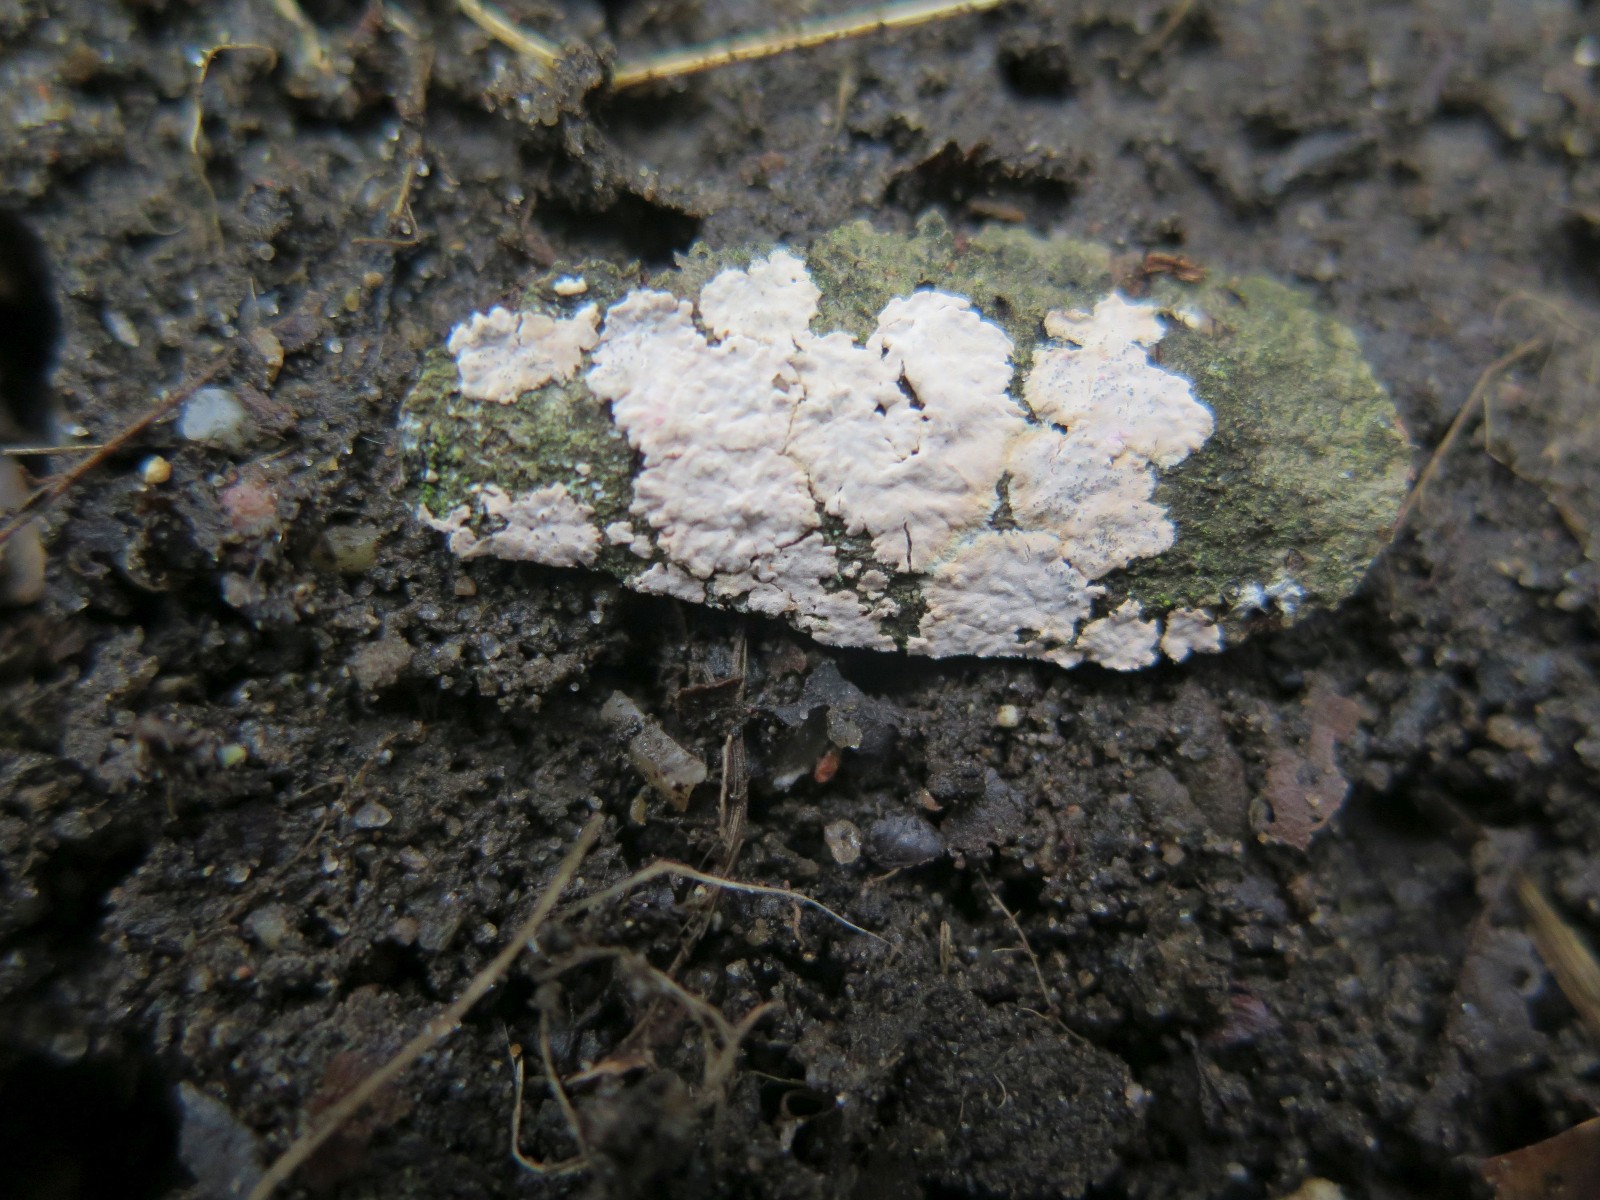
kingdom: Fungi
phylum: Basidiomycota
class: Agaricomycetes
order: Corticiales
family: Corticiaceae
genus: Corticium
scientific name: Corticium roseum
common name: rosa barkskind
